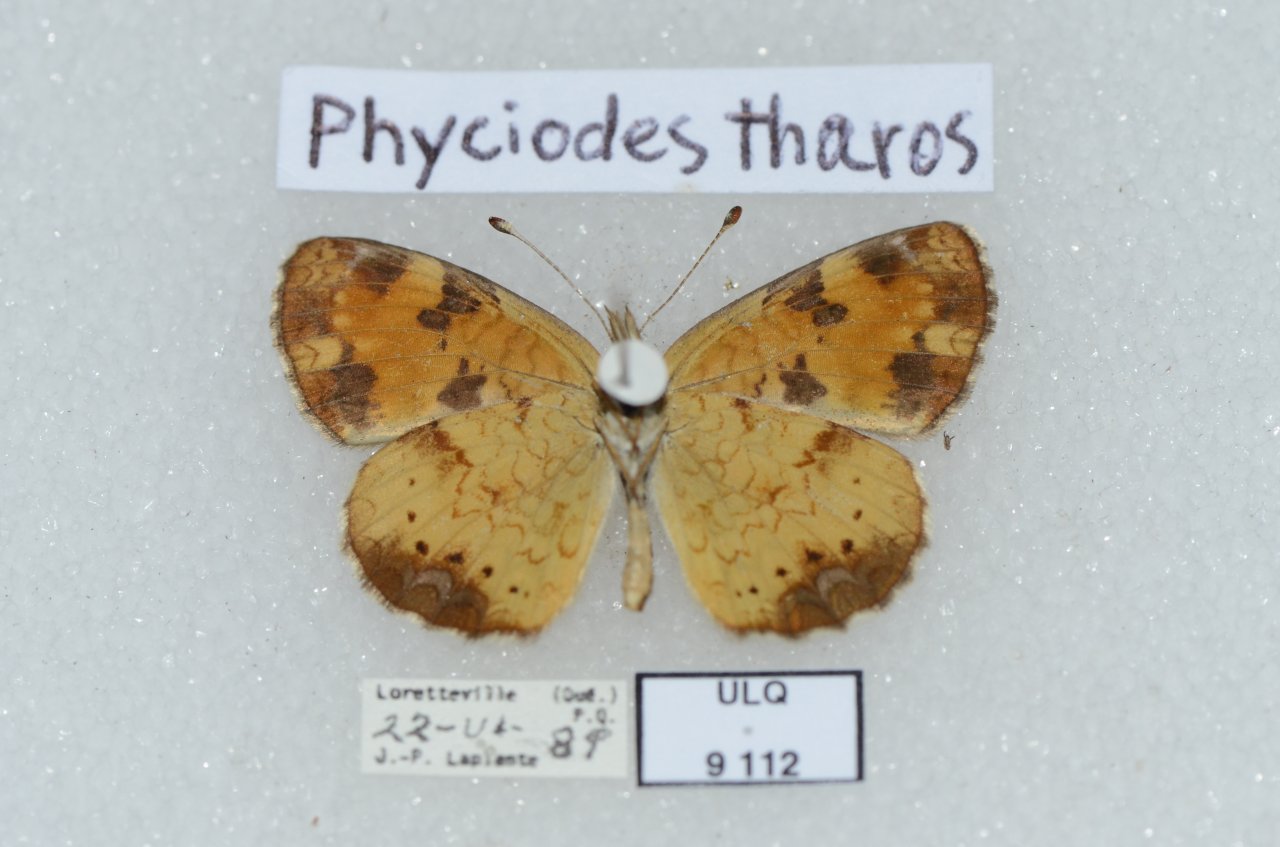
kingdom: Animalia
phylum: Arthropoda
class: Insecta
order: Lepidoptera
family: Nymphalidae
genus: Phyciodes
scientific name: Phyciodes tharos
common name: Northern Crescent
